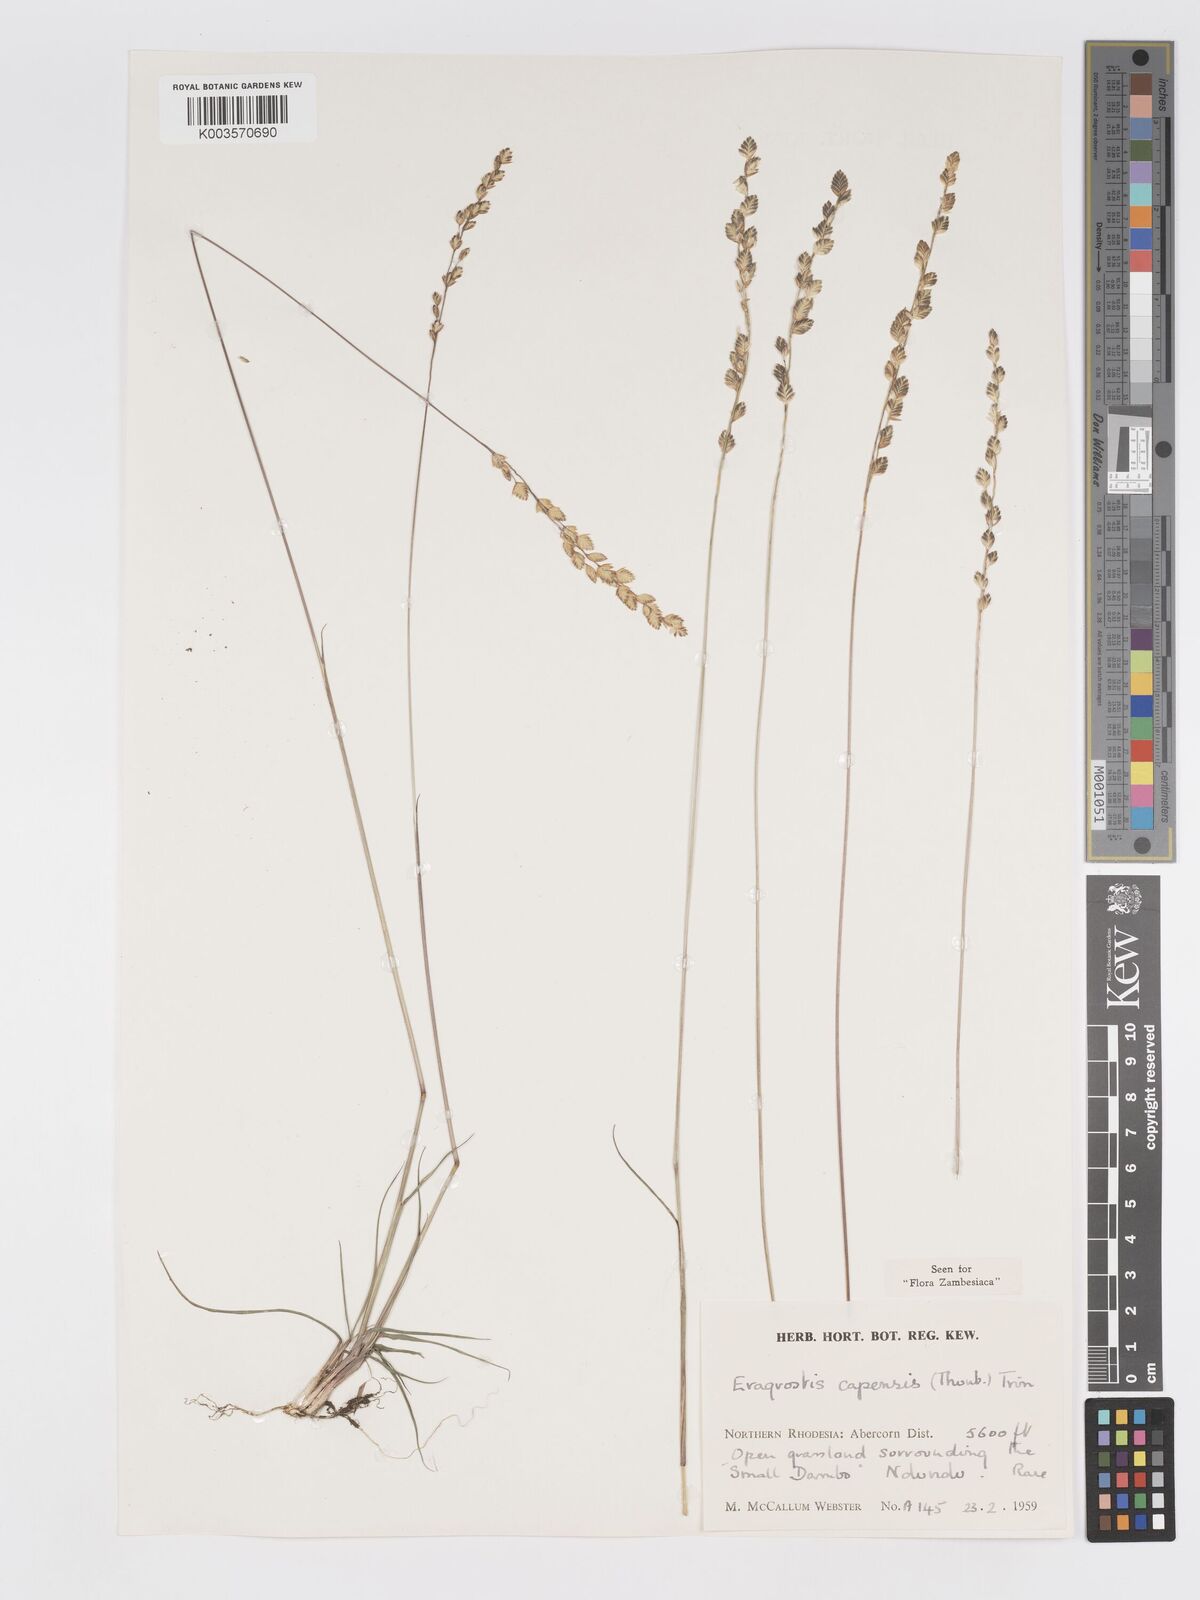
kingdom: Plantae
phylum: Tracheophyta
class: Liliopsida
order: Poales
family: Poaceae
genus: Eragrostis
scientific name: Eragrostis capensis
